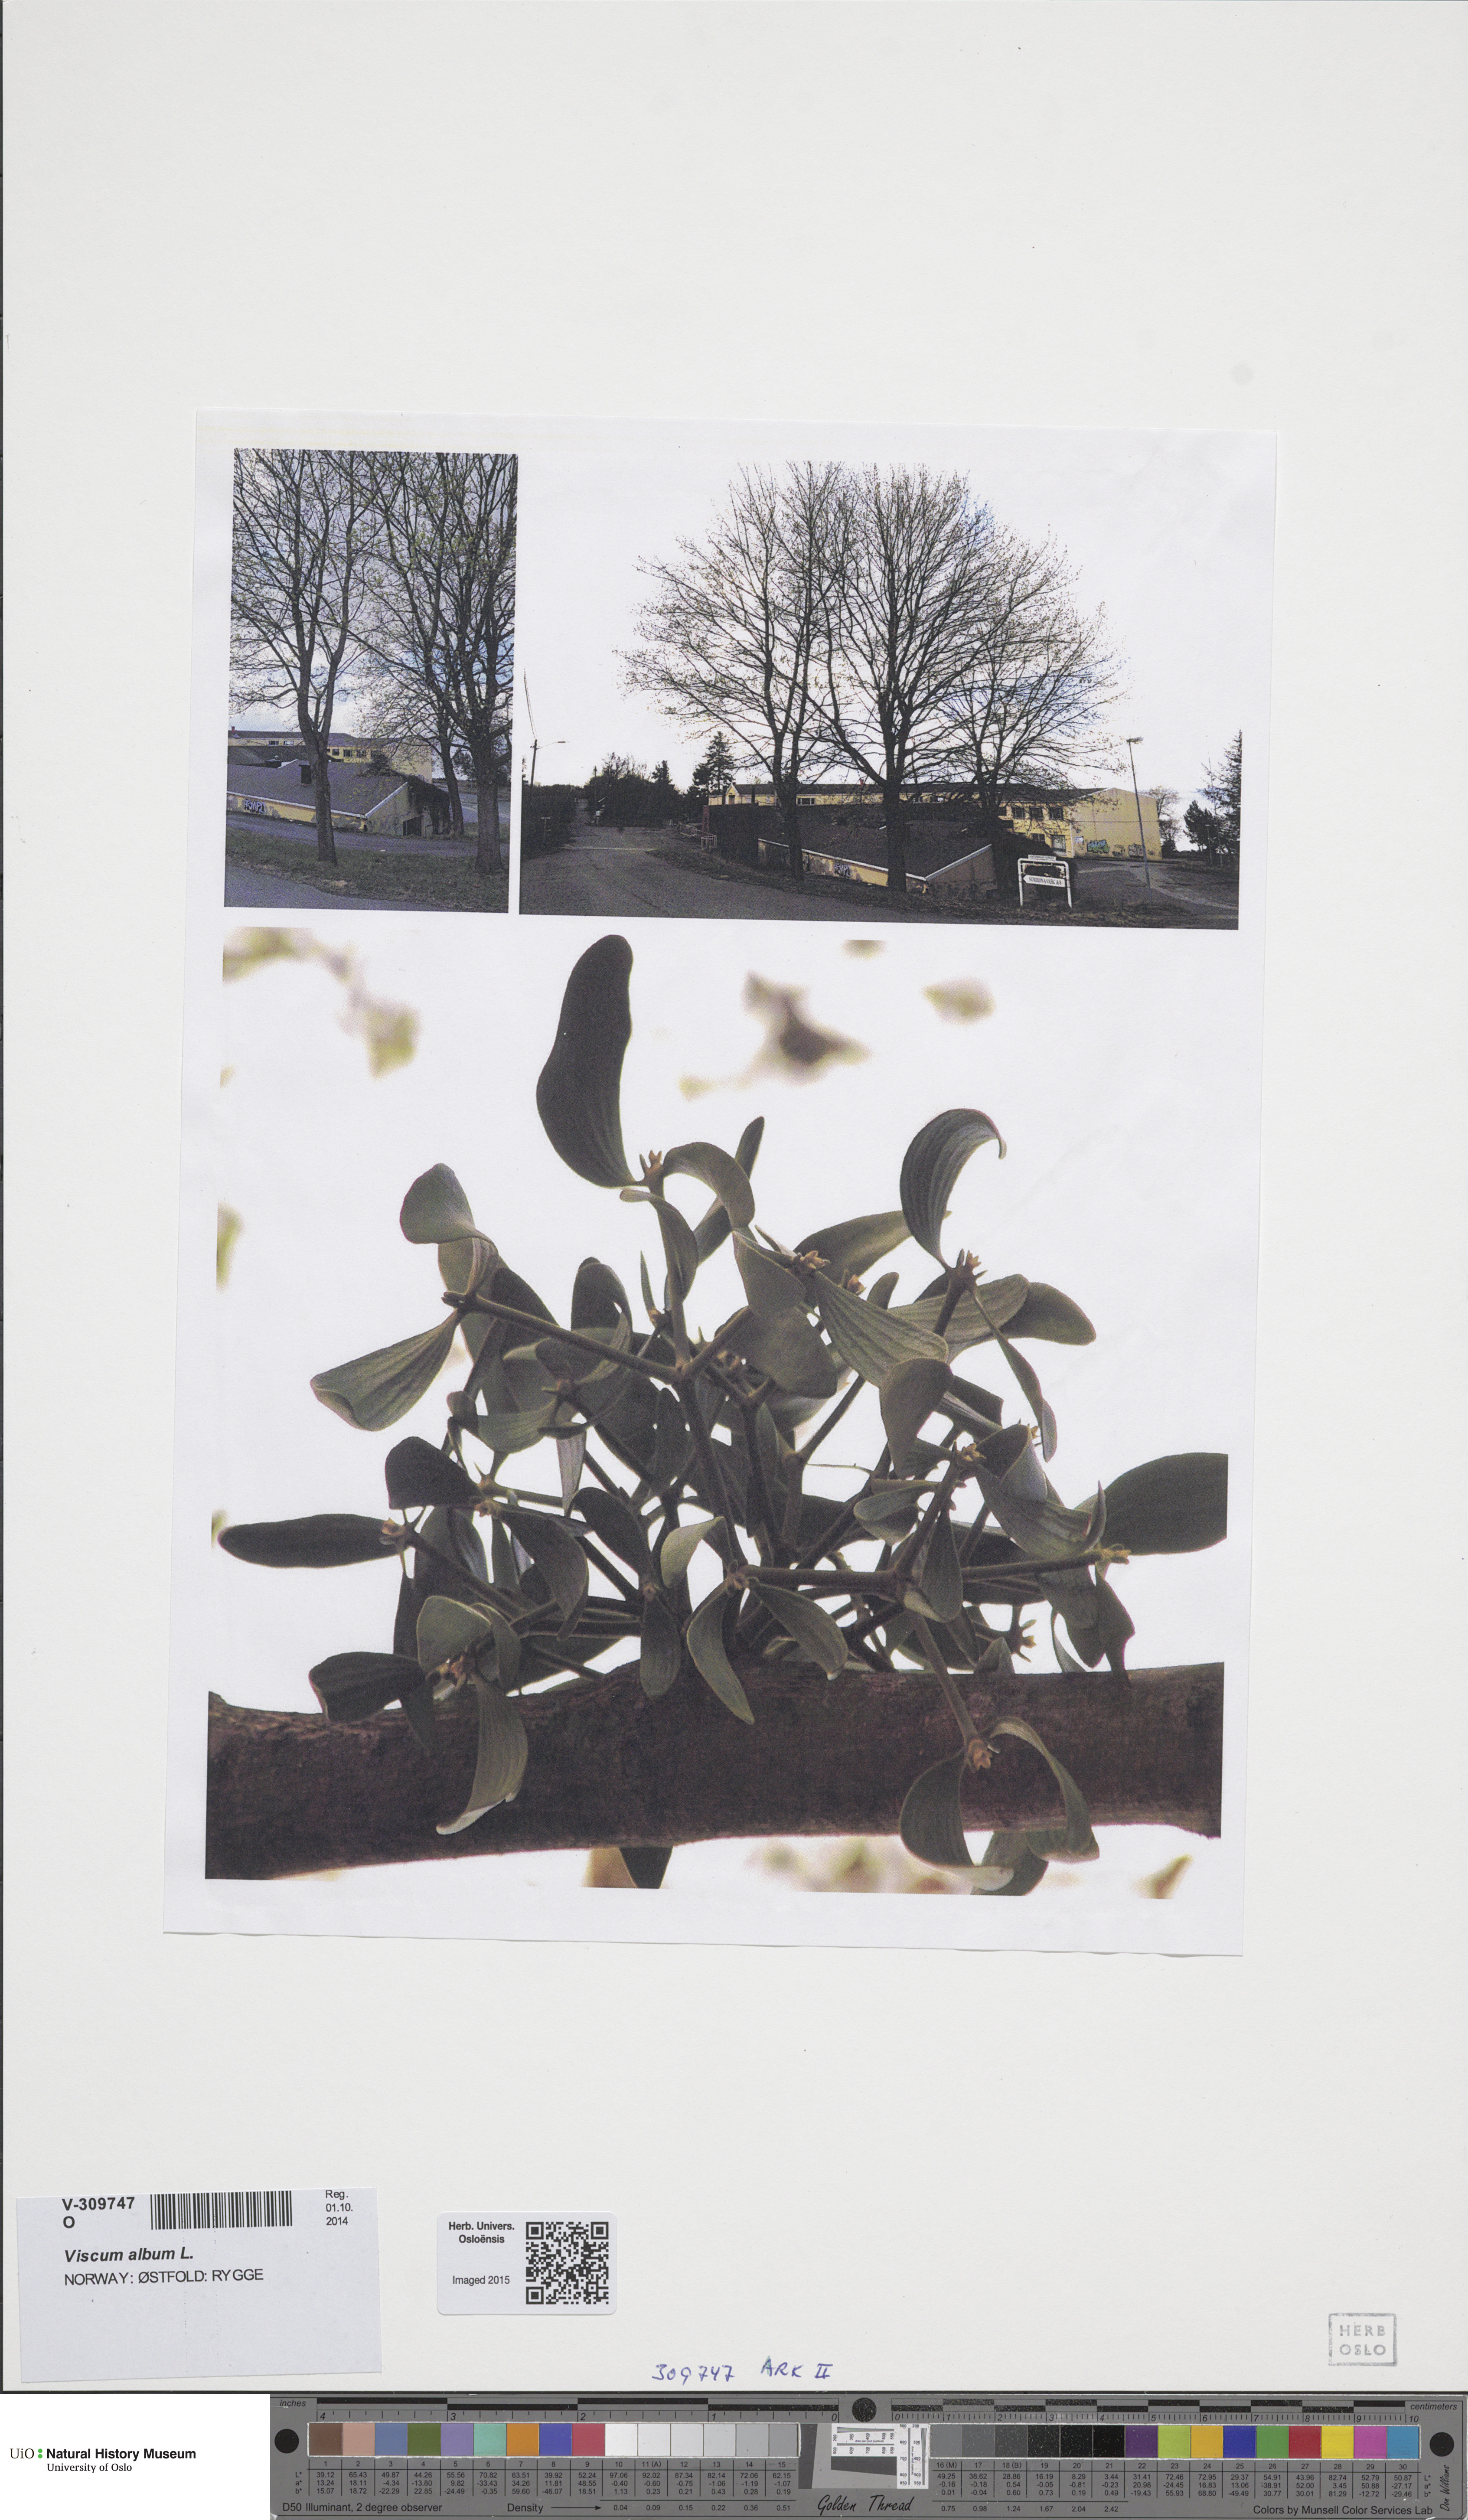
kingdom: Plantae
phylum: Tracheophyta
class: Magnoliopsida
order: Santalales
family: Viscaceae
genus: Viscum
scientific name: Viscum album
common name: Mistletoe
